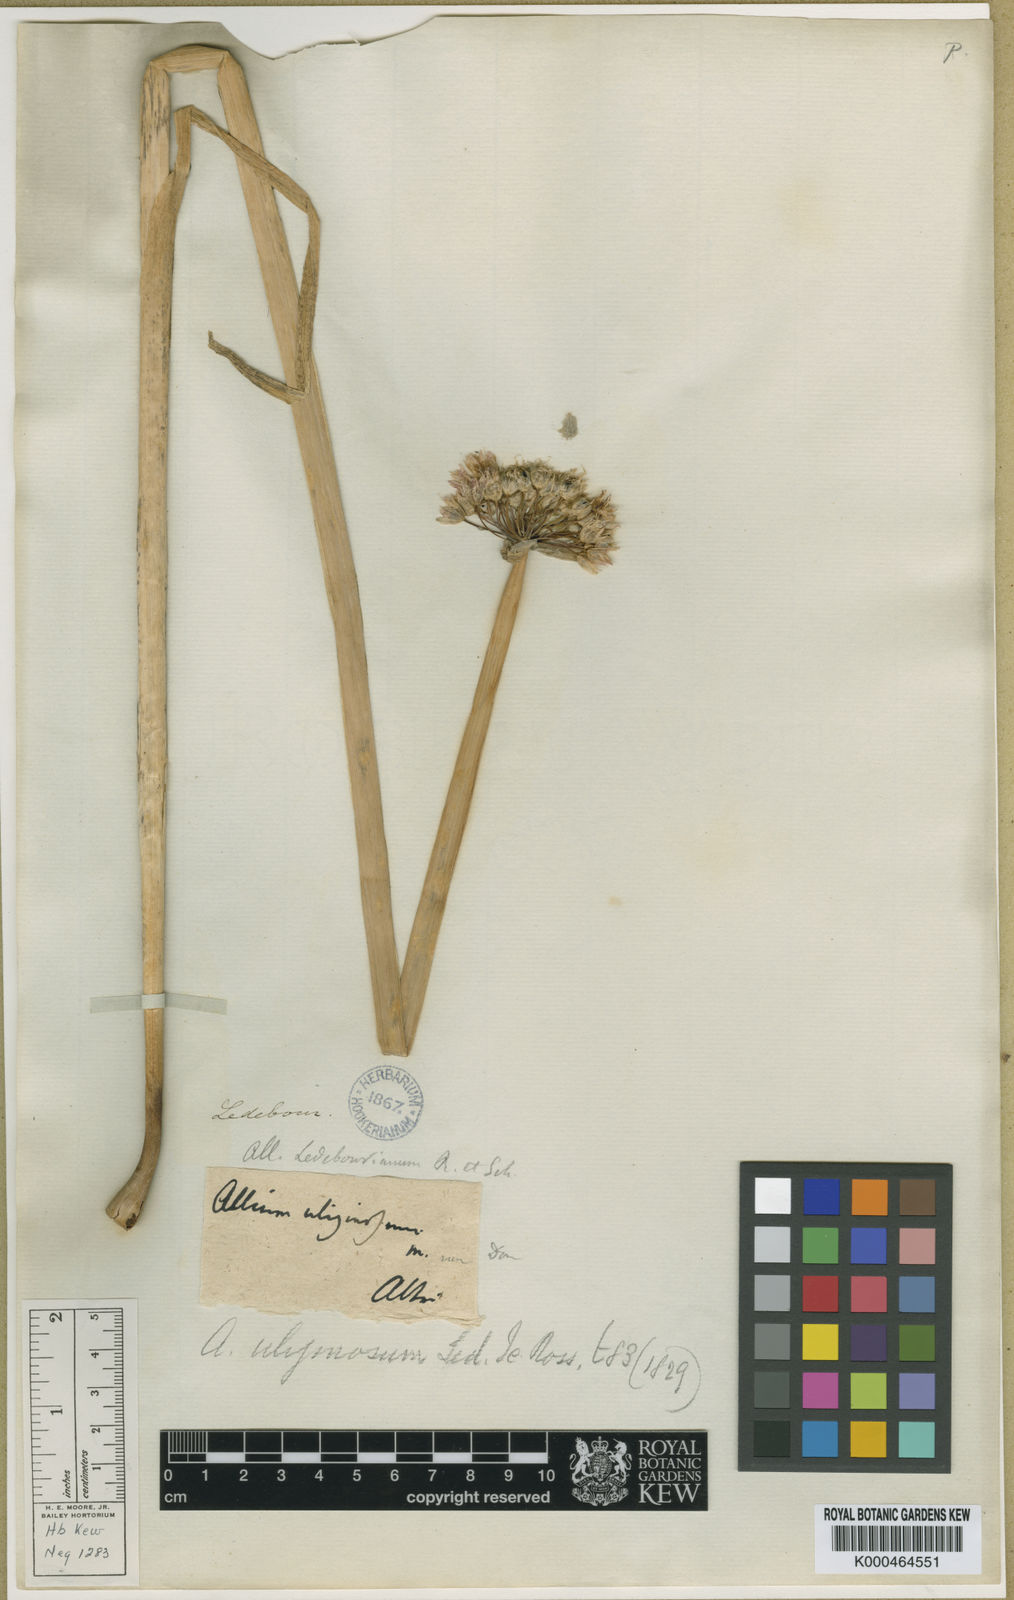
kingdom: Plantae
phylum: Tracheophyta
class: Liliopsida
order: Asparagales
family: Amaryllidaceae
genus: Allium
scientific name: Allium ledebourianum
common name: Ledebour chive
